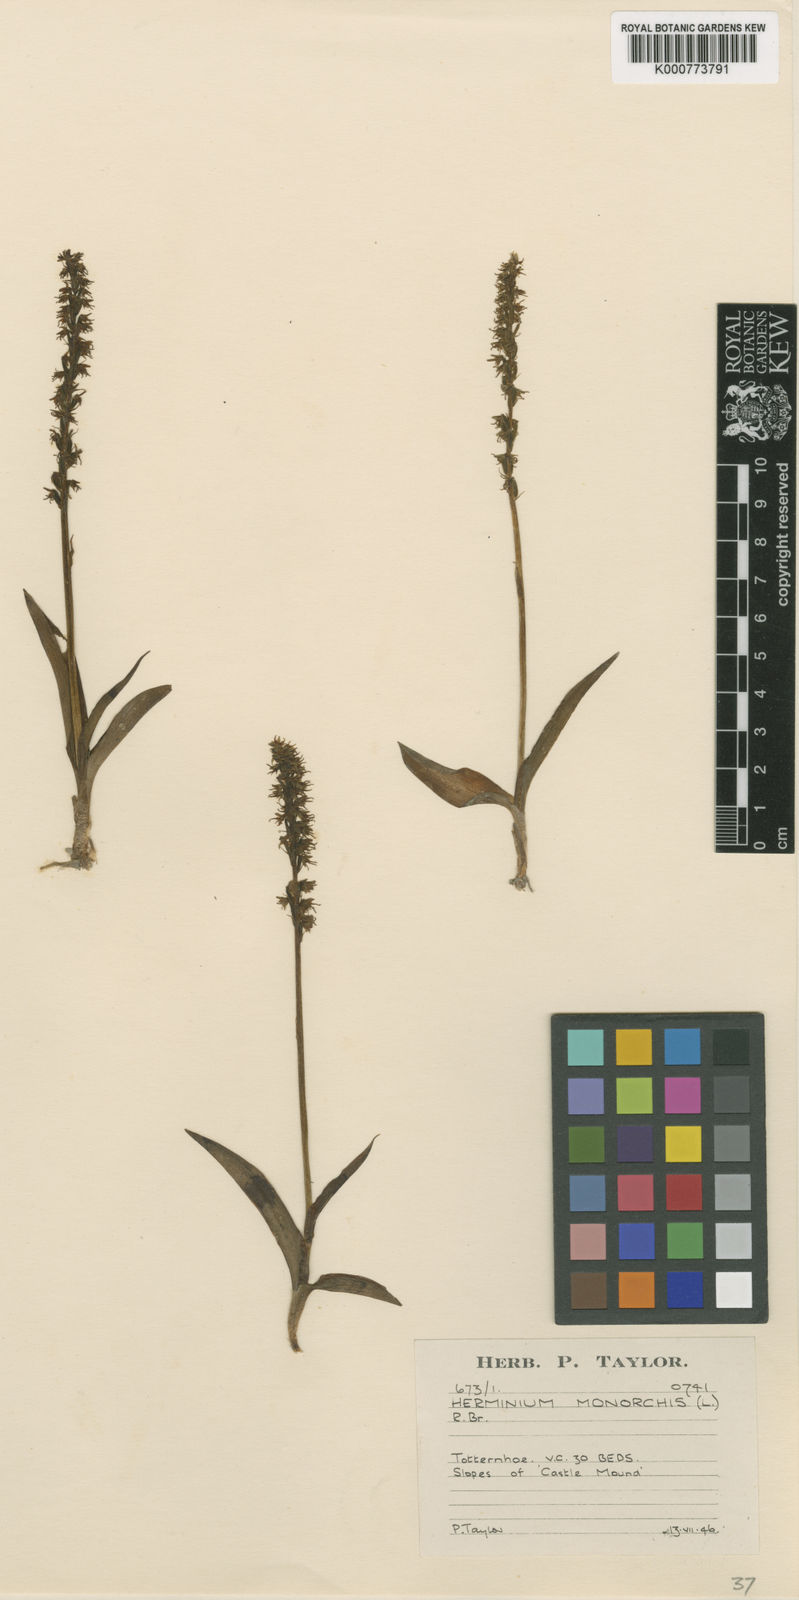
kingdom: Plantae
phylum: Tracheophyta
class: Liliopsida
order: Asparagales
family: Orchidaceae
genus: Herminium
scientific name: Herminium monorchis
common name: Musk orchid
